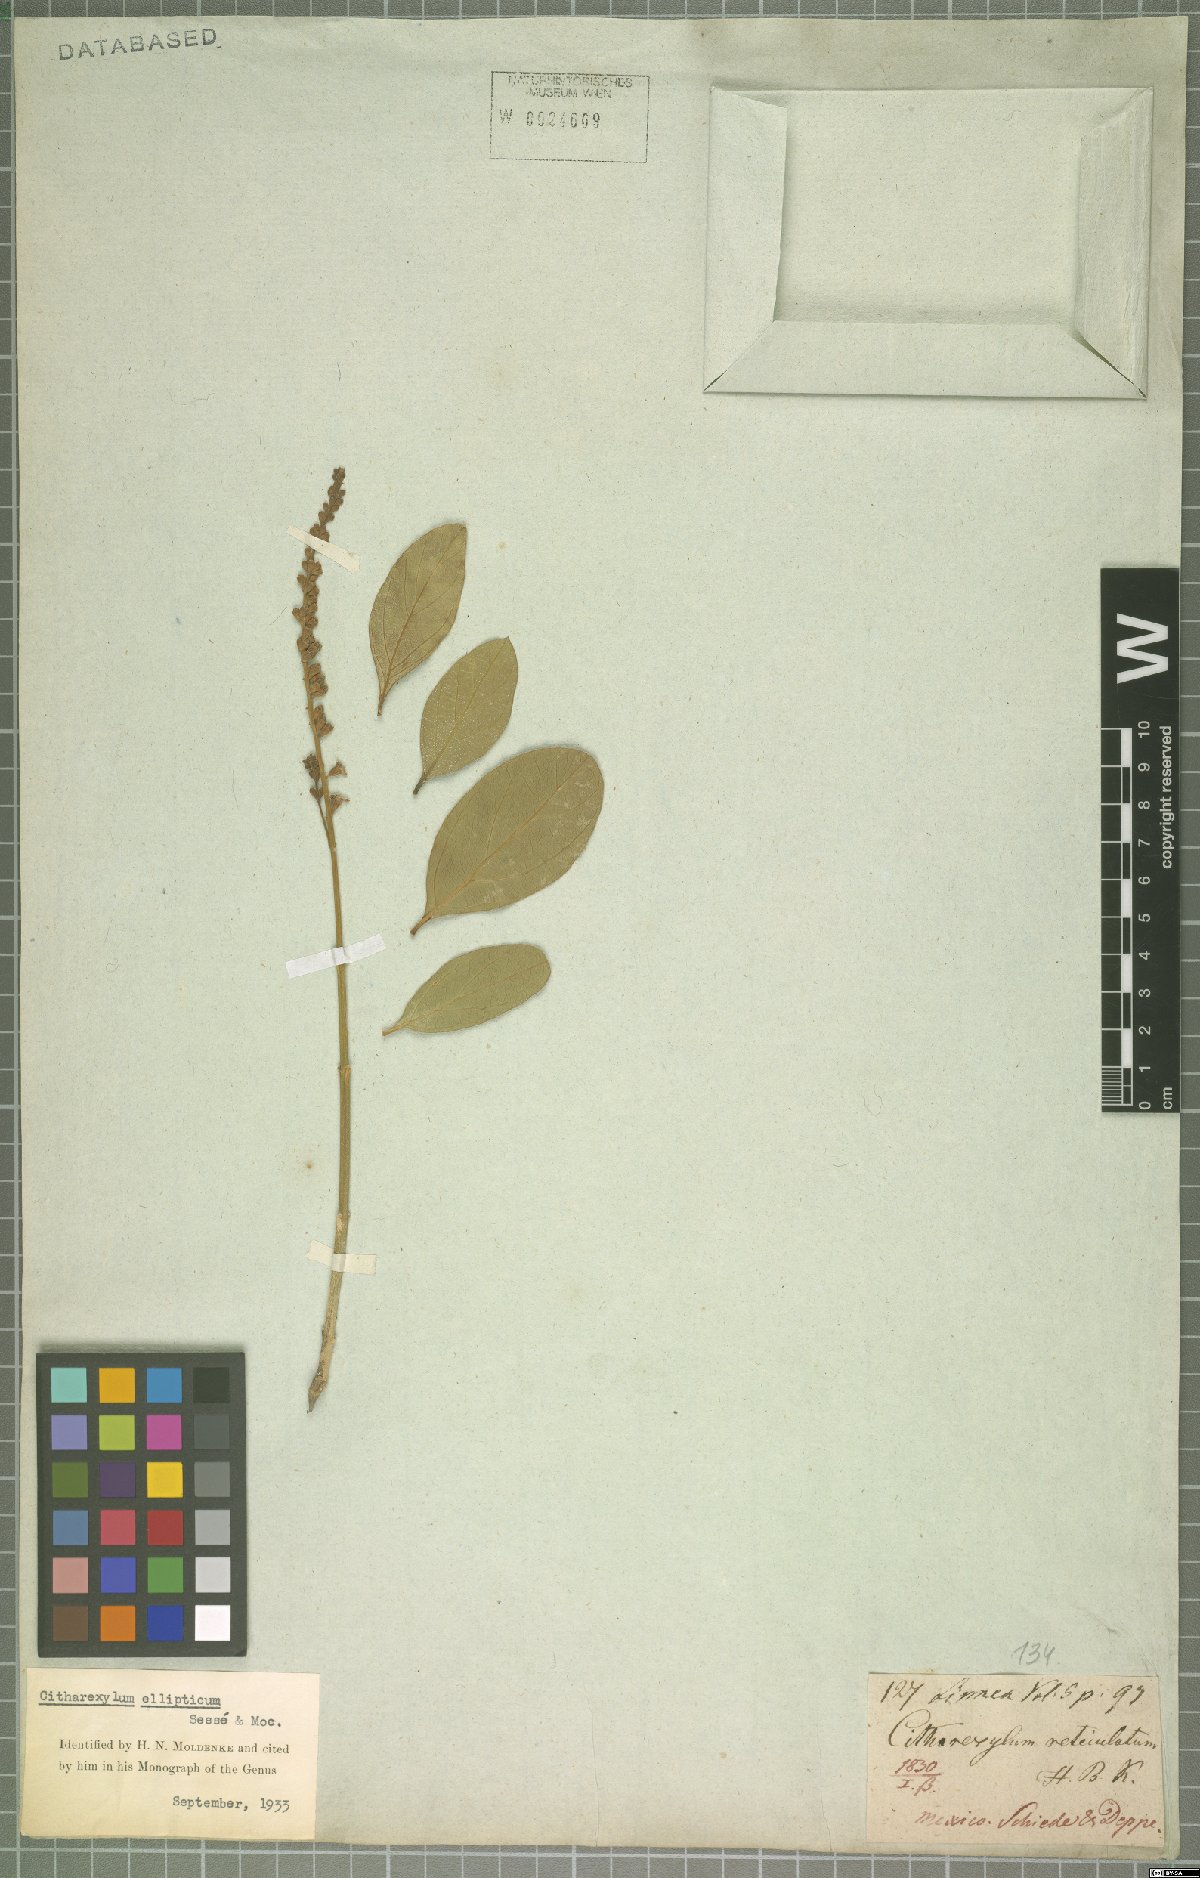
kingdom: Plantae
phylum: Tracheophyta
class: Magnoliopsida
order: Lamiales
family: Verbenaceae
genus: Citharexylum
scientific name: Citharexylum ellipticum
